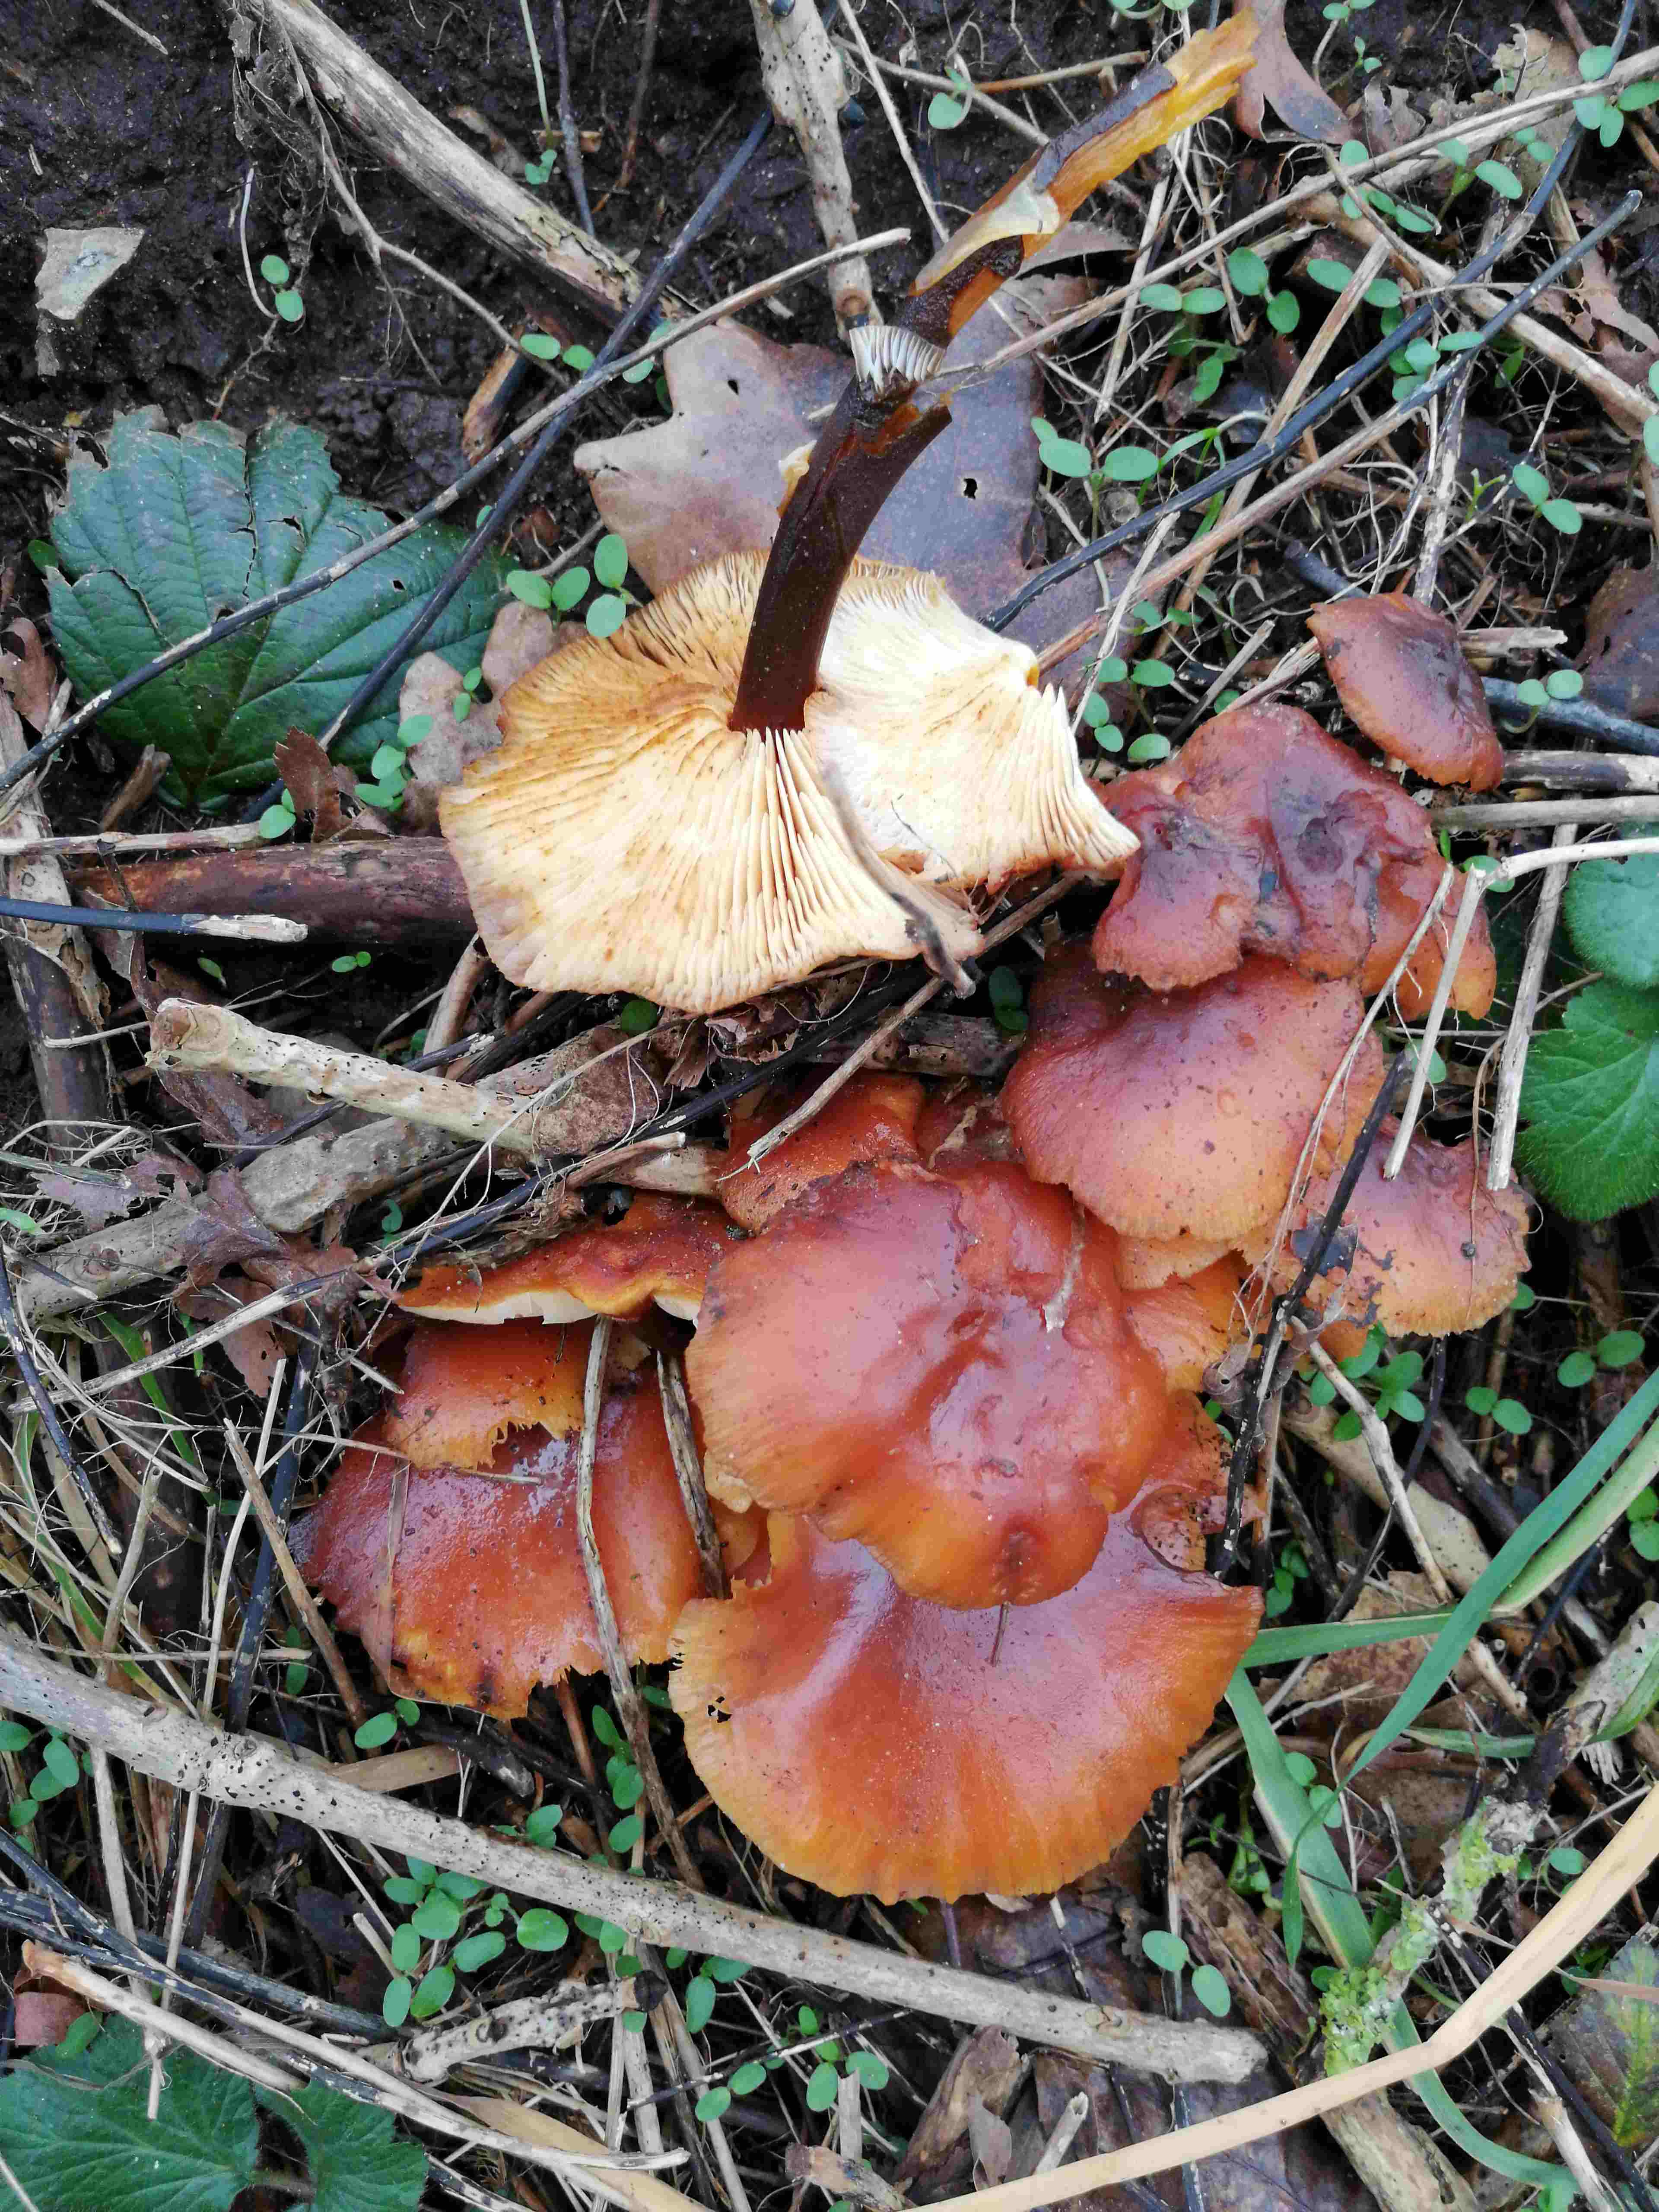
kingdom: Fungi
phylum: Basidiomycota
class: Agaricomycetes
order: Agaricales
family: Physalacriaceae
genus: Flammulina
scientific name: Flammulina
